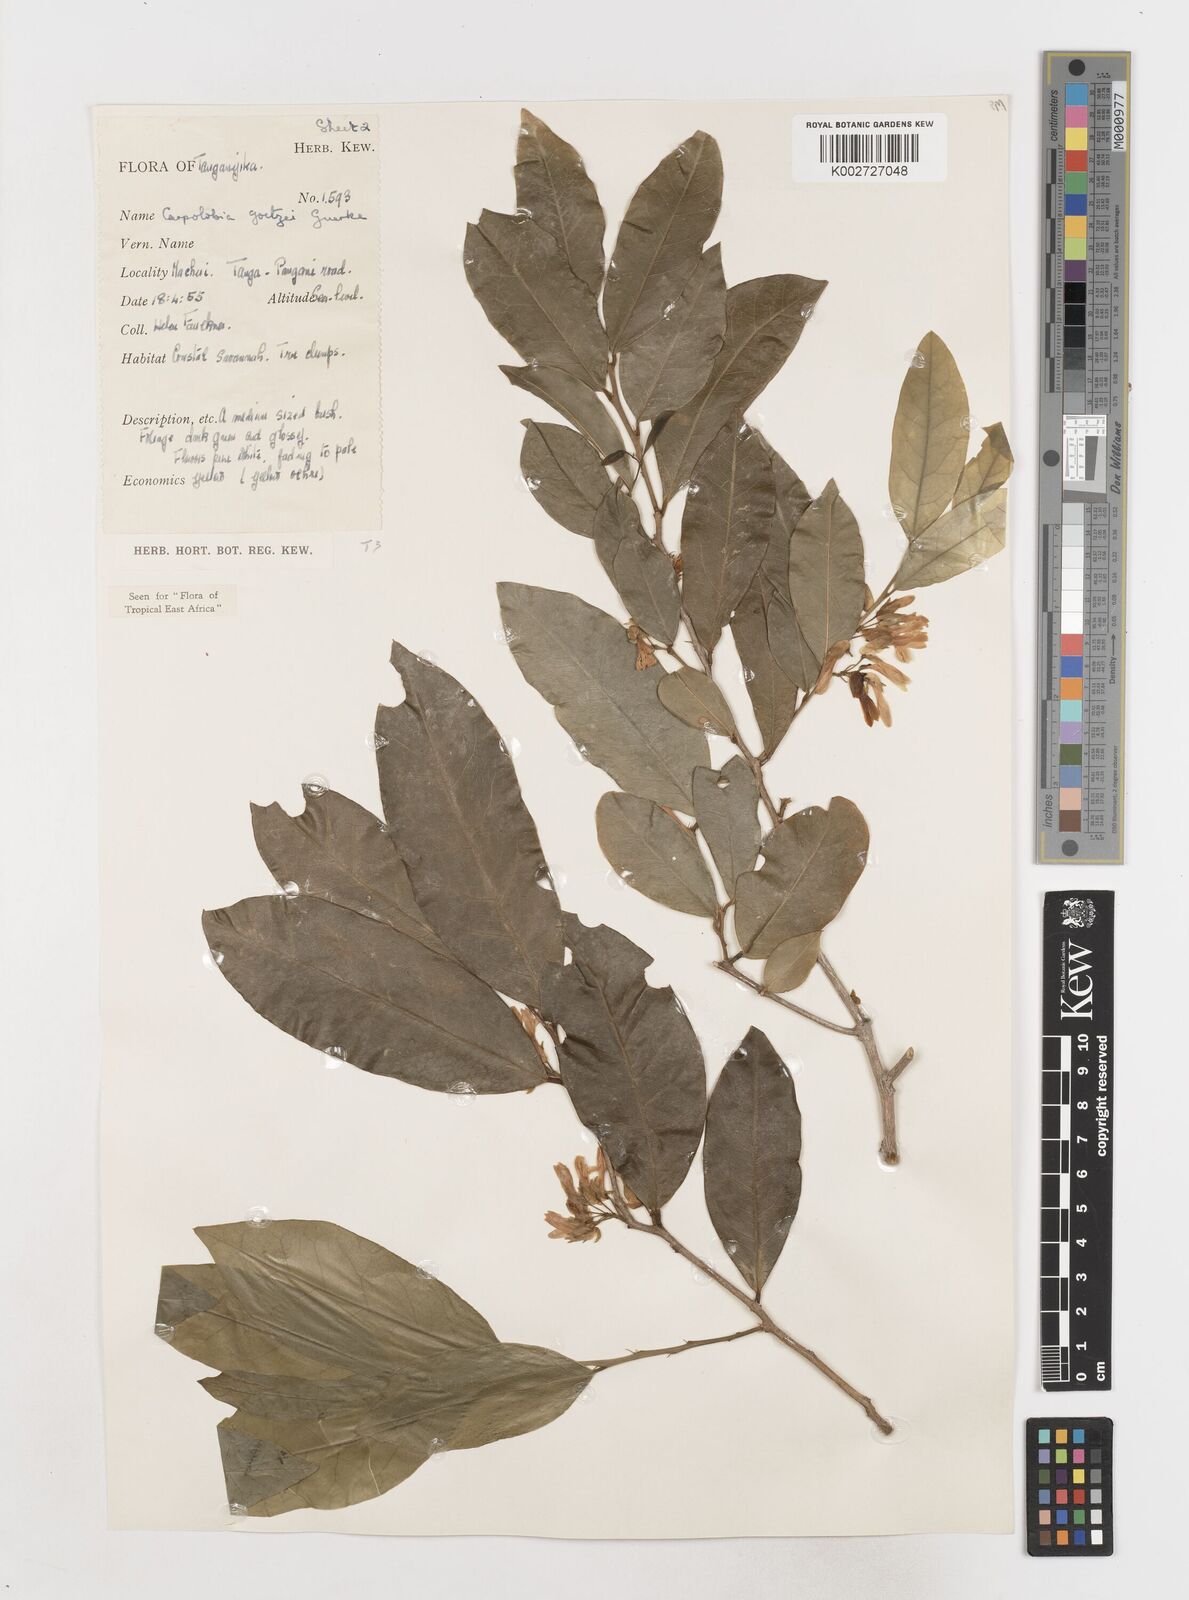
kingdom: Plantae
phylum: Tracheophyta
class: Magnoliopsida
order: Fabales
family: Polygalaceae
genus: Carpolobia
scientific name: Carpolobia goetzei
